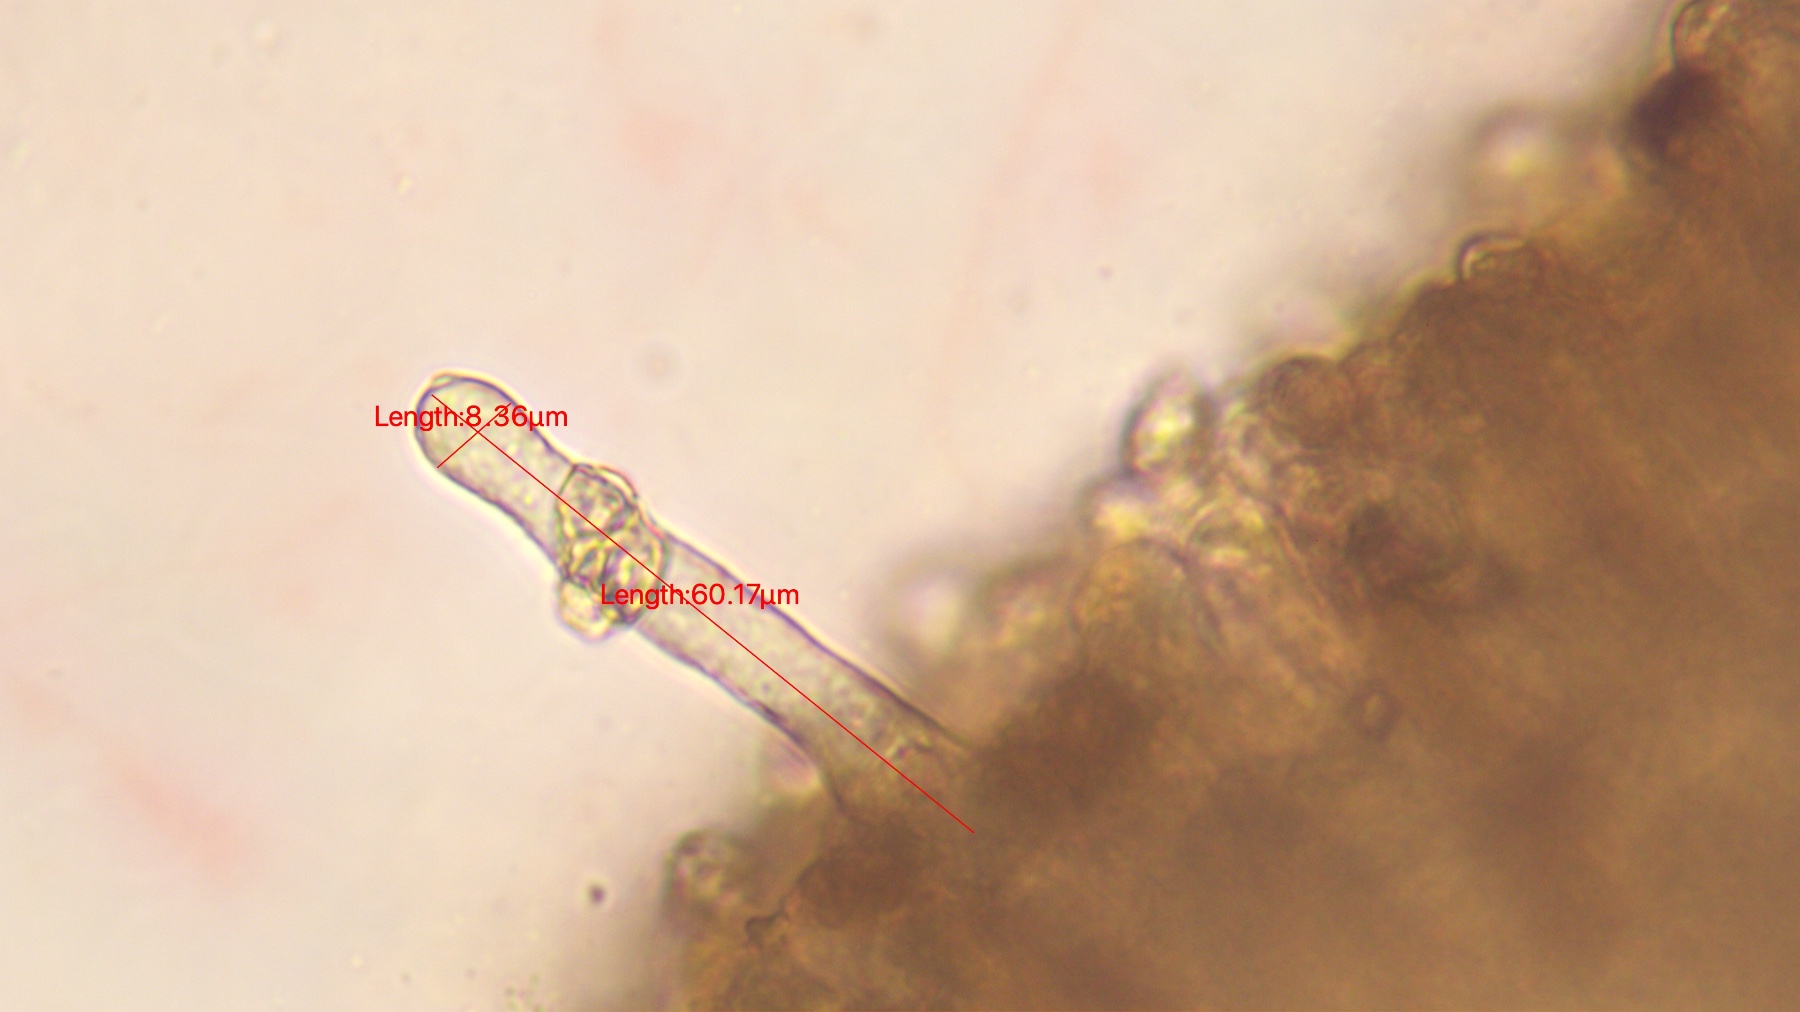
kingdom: Fungi
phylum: Basidiomycota
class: Agaricomycetes
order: Agaricales
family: Entolomataceae
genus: Entoloma
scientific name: Entoloma
